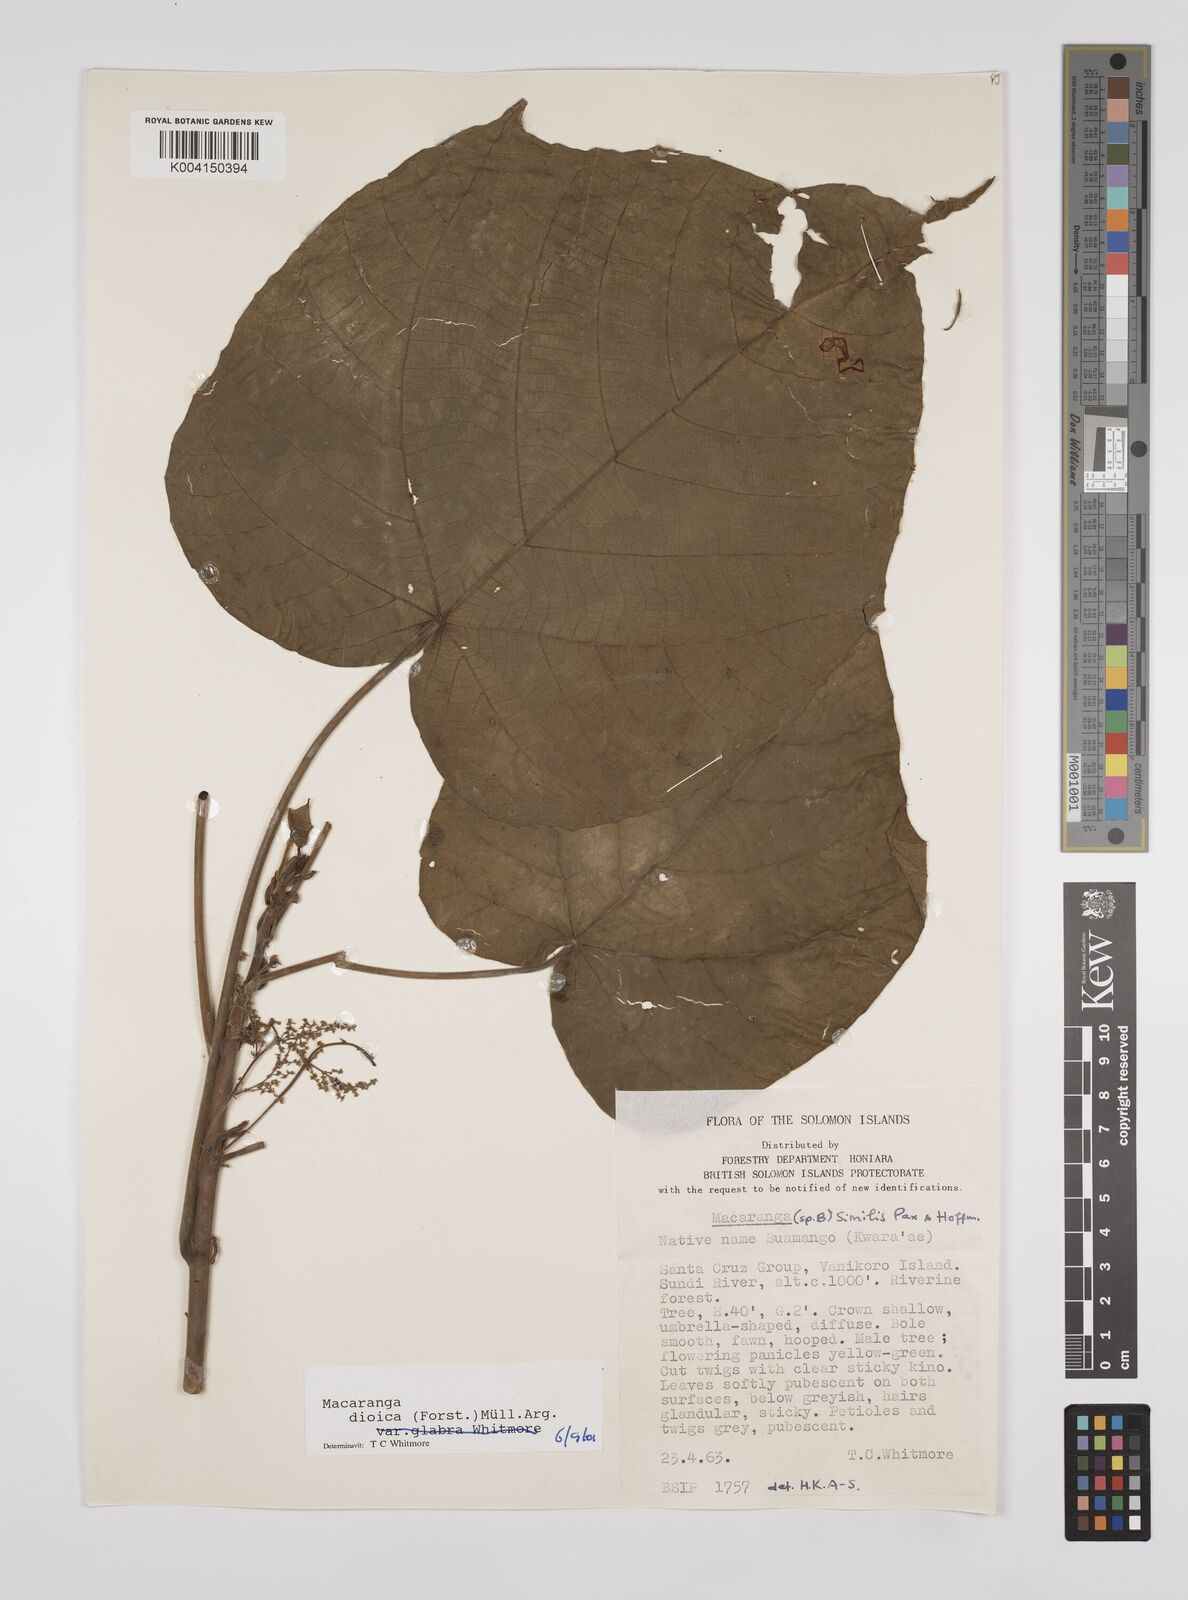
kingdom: Plantae
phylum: Tracheophyta
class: Magnoliopsida
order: Malpighiales
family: Euphorbiaceae
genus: Macaranga
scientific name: Macaranga dioica
